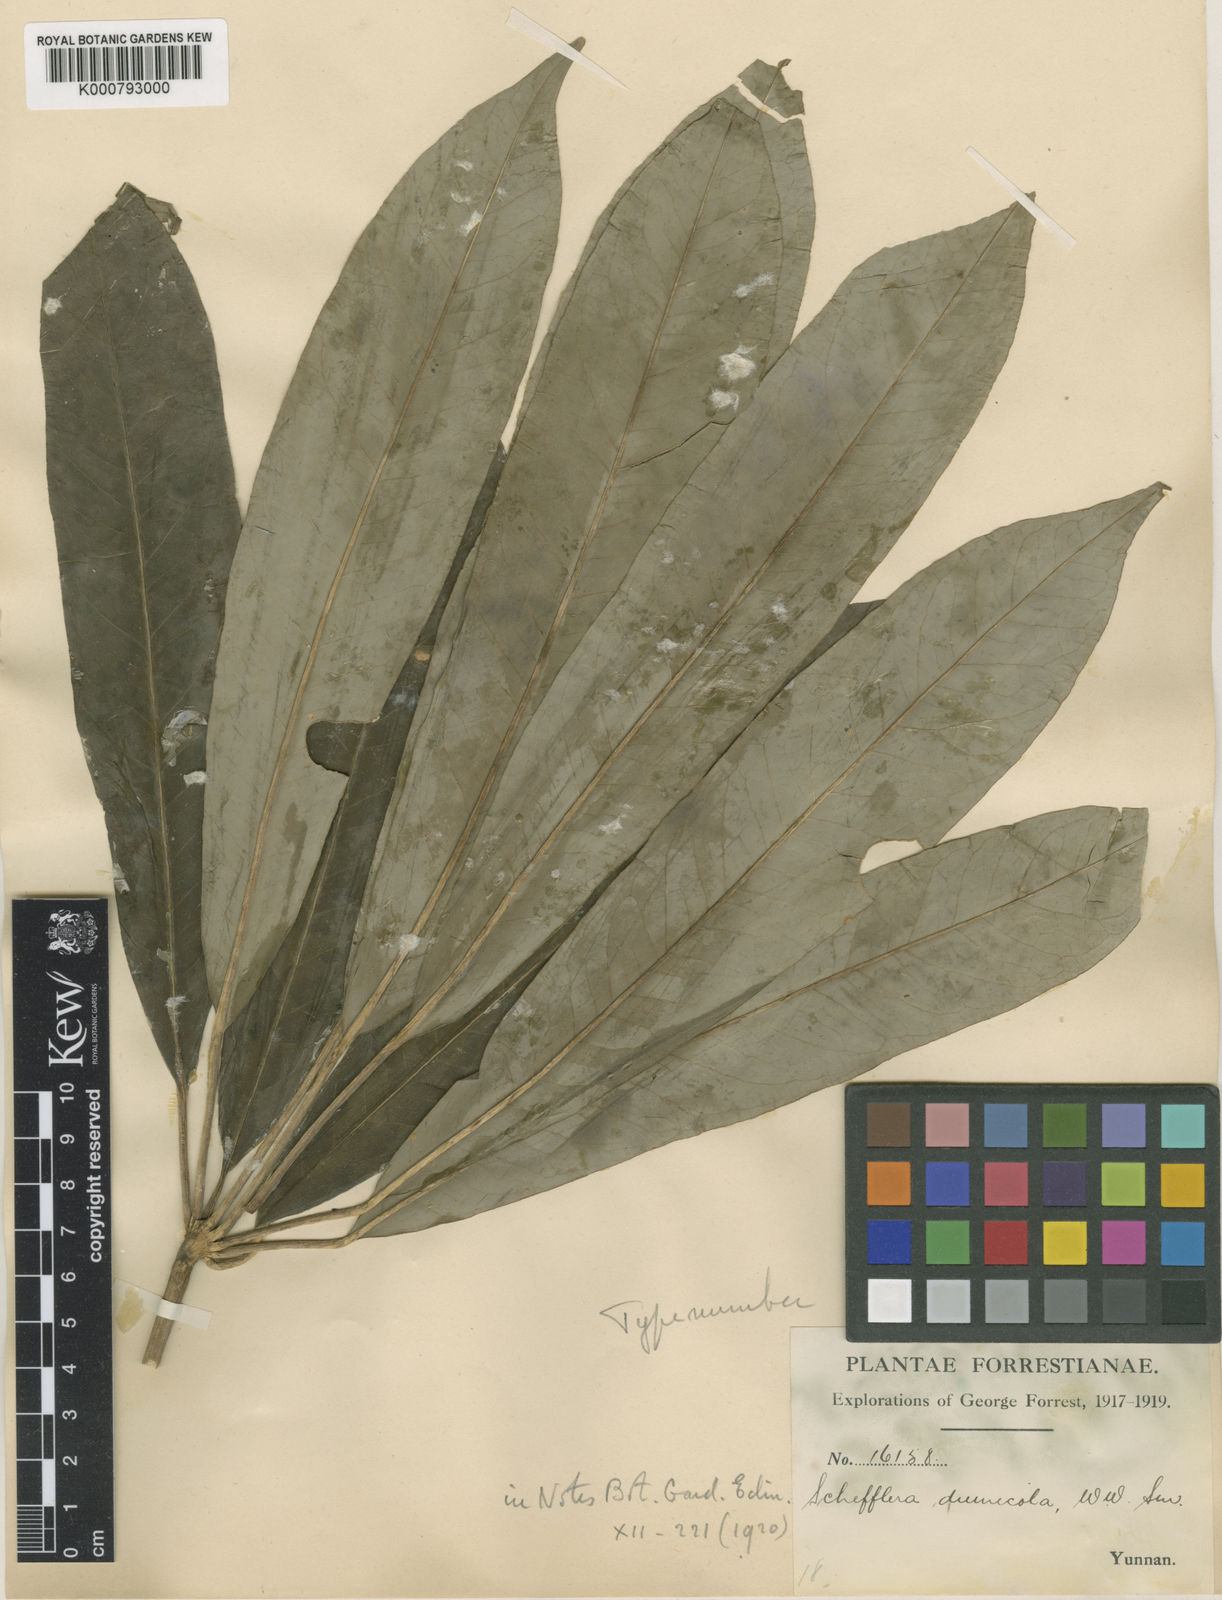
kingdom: Plantae
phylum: Tracheophyta
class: Magnoliopsida
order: Apiales
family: Araliaceae
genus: Heptapleurum
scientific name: Heptapleurum hoi
